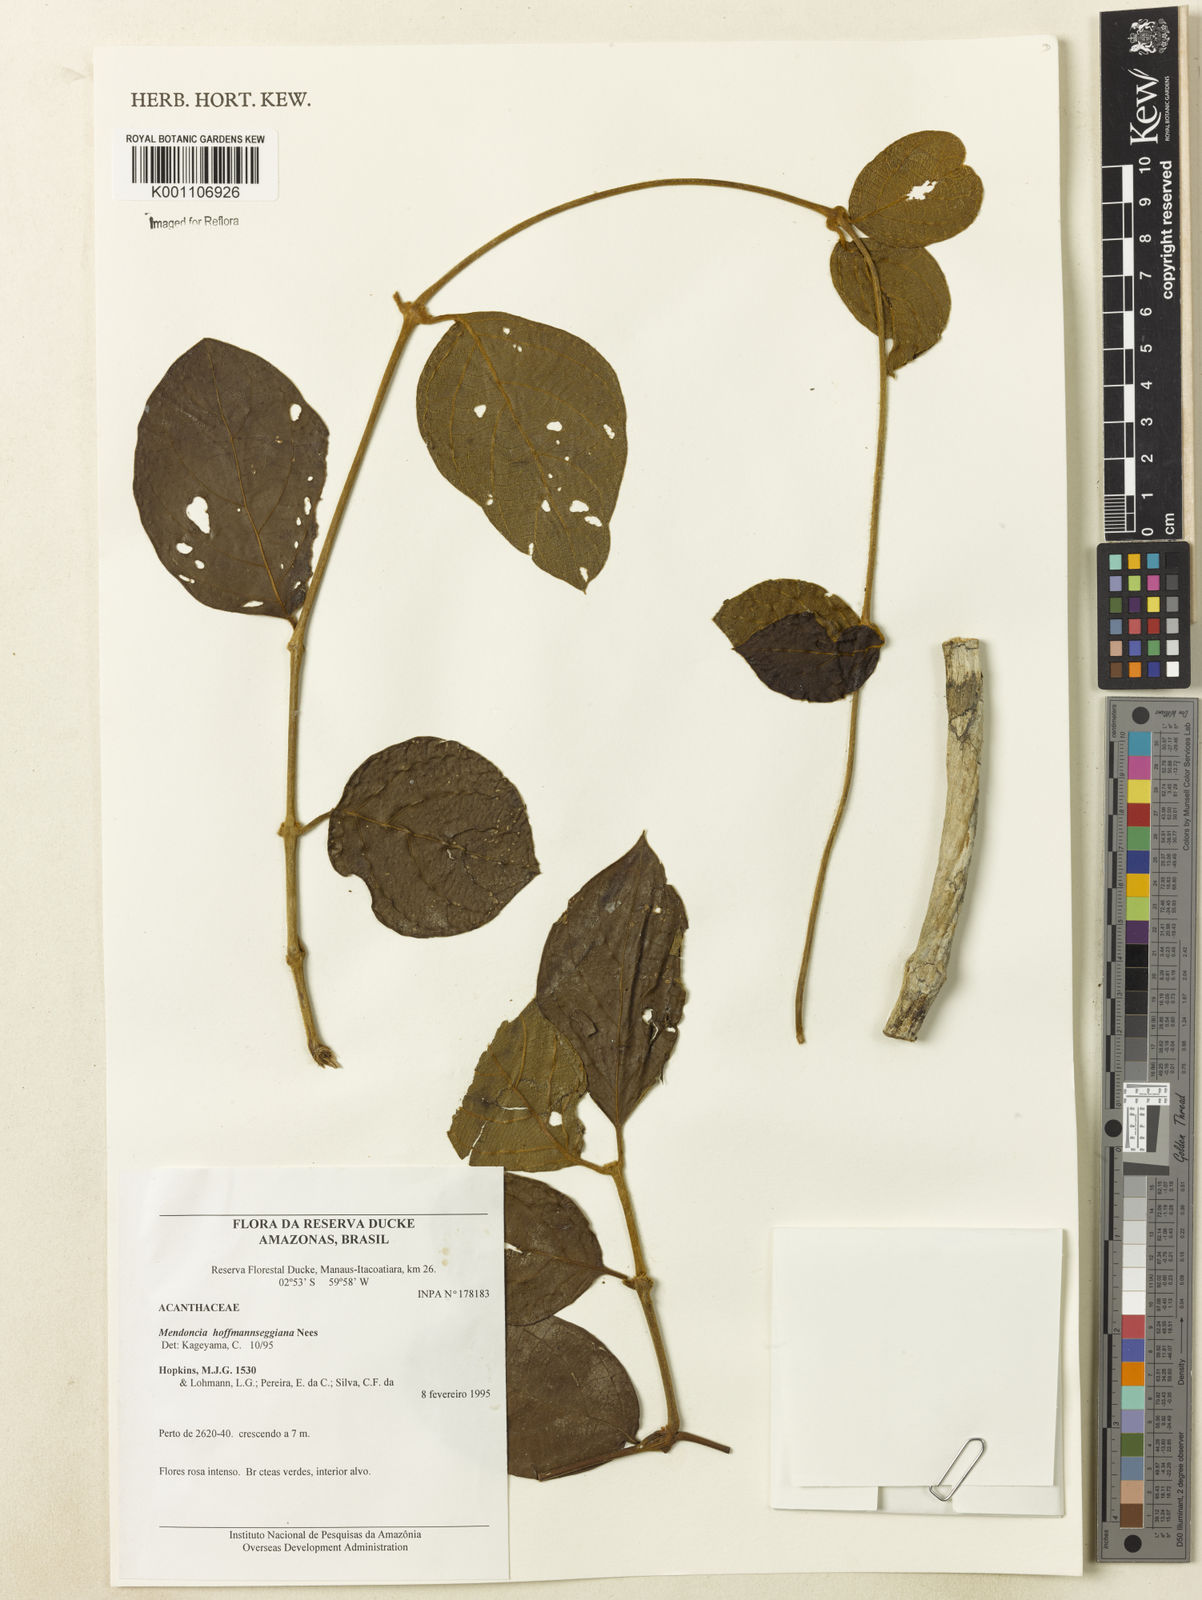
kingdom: Plantae
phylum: Tracheophyta
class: Magnoliopsida
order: Lamiales
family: Acanthaceae
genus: Mendoncia
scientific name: Mendoncia hoffmannseggiana
